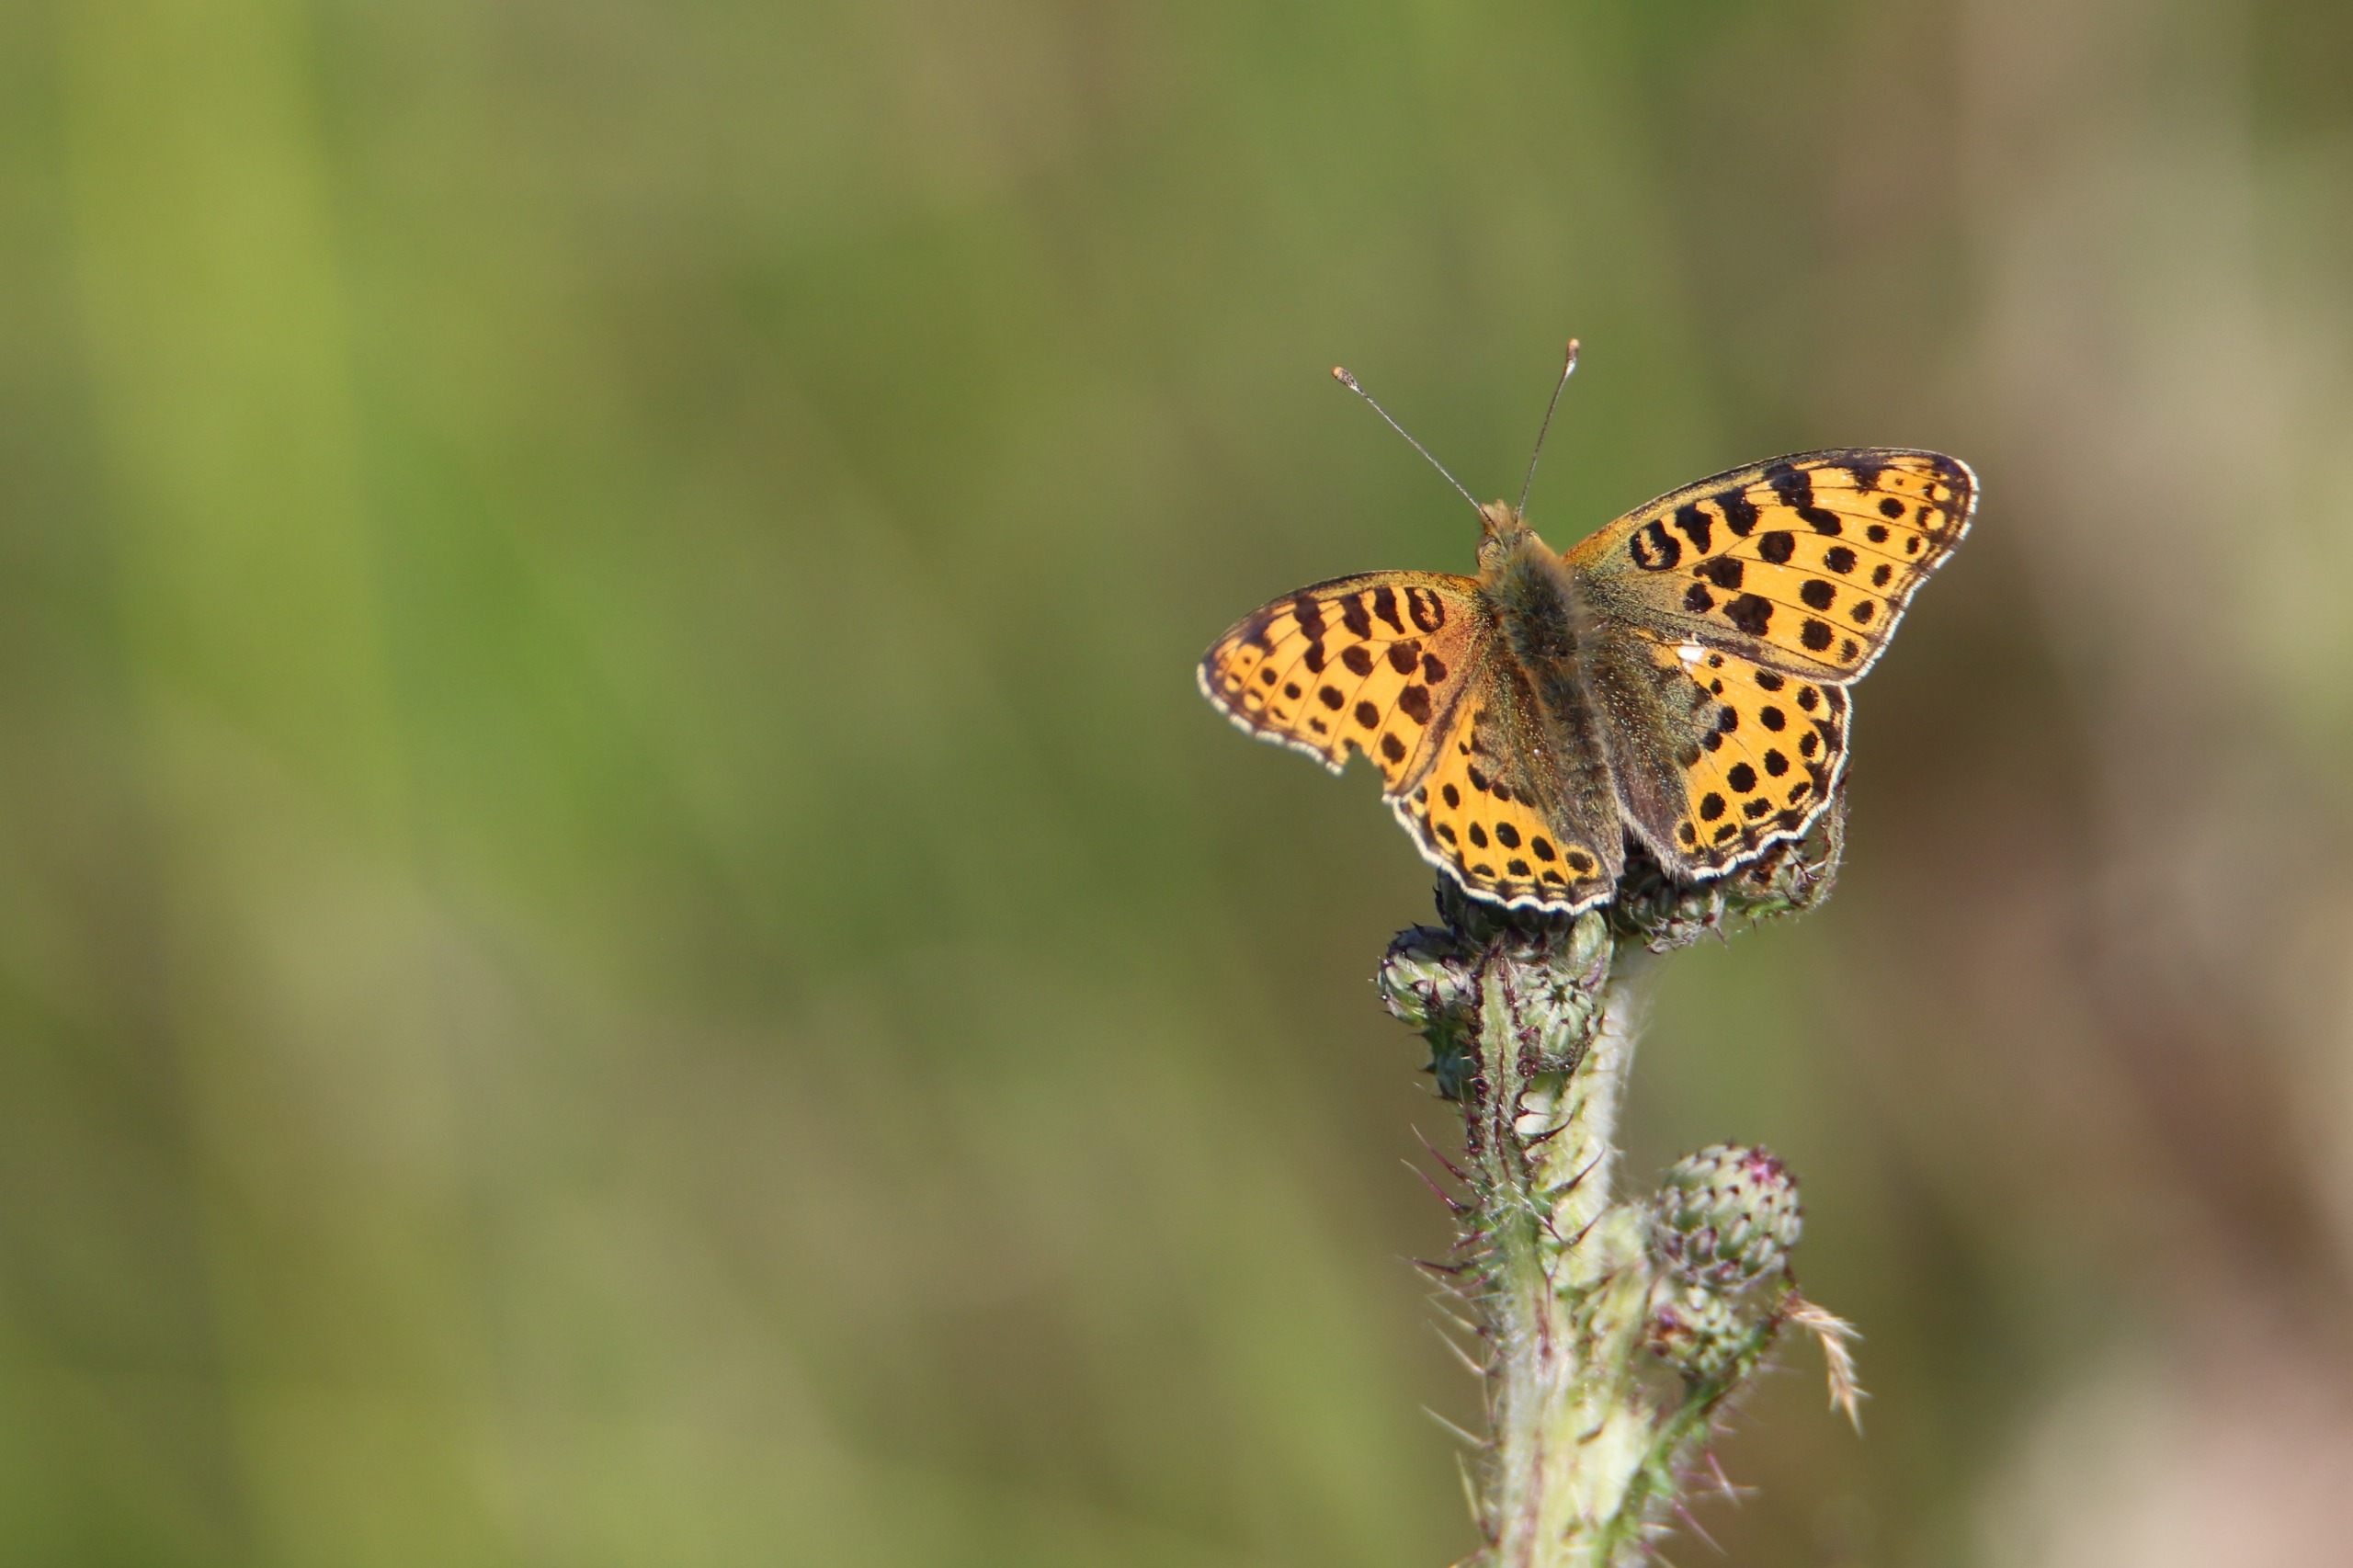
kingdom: Animalia
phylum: Arthropoda
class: Insecta
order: Lepidoptera
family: Nymphalidae
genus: Issoria
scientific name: Issoria lathonia
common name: Storplettet perlemorsommerfugl
